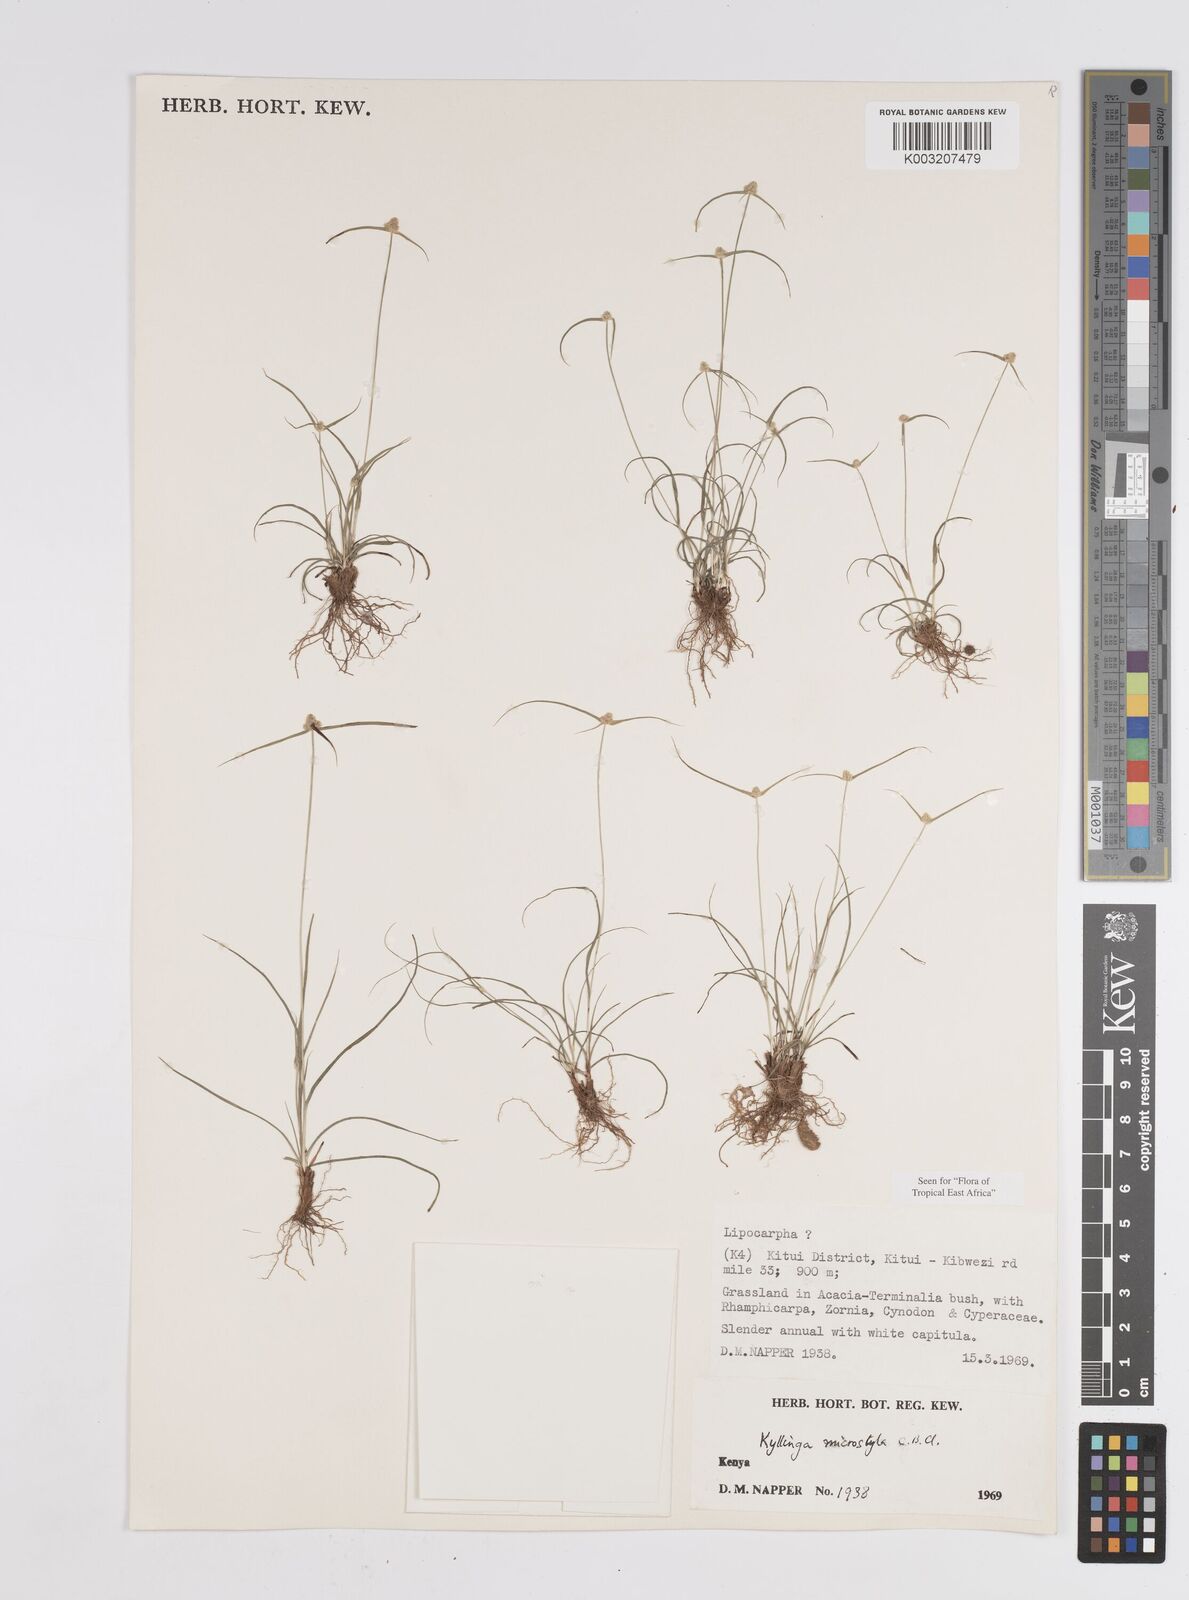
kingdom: Plantae
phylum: Tracheophyta
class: Liliopsida
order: Poales
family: Cyperaceae
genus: Cyperus
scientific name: Cyperus microstylus
